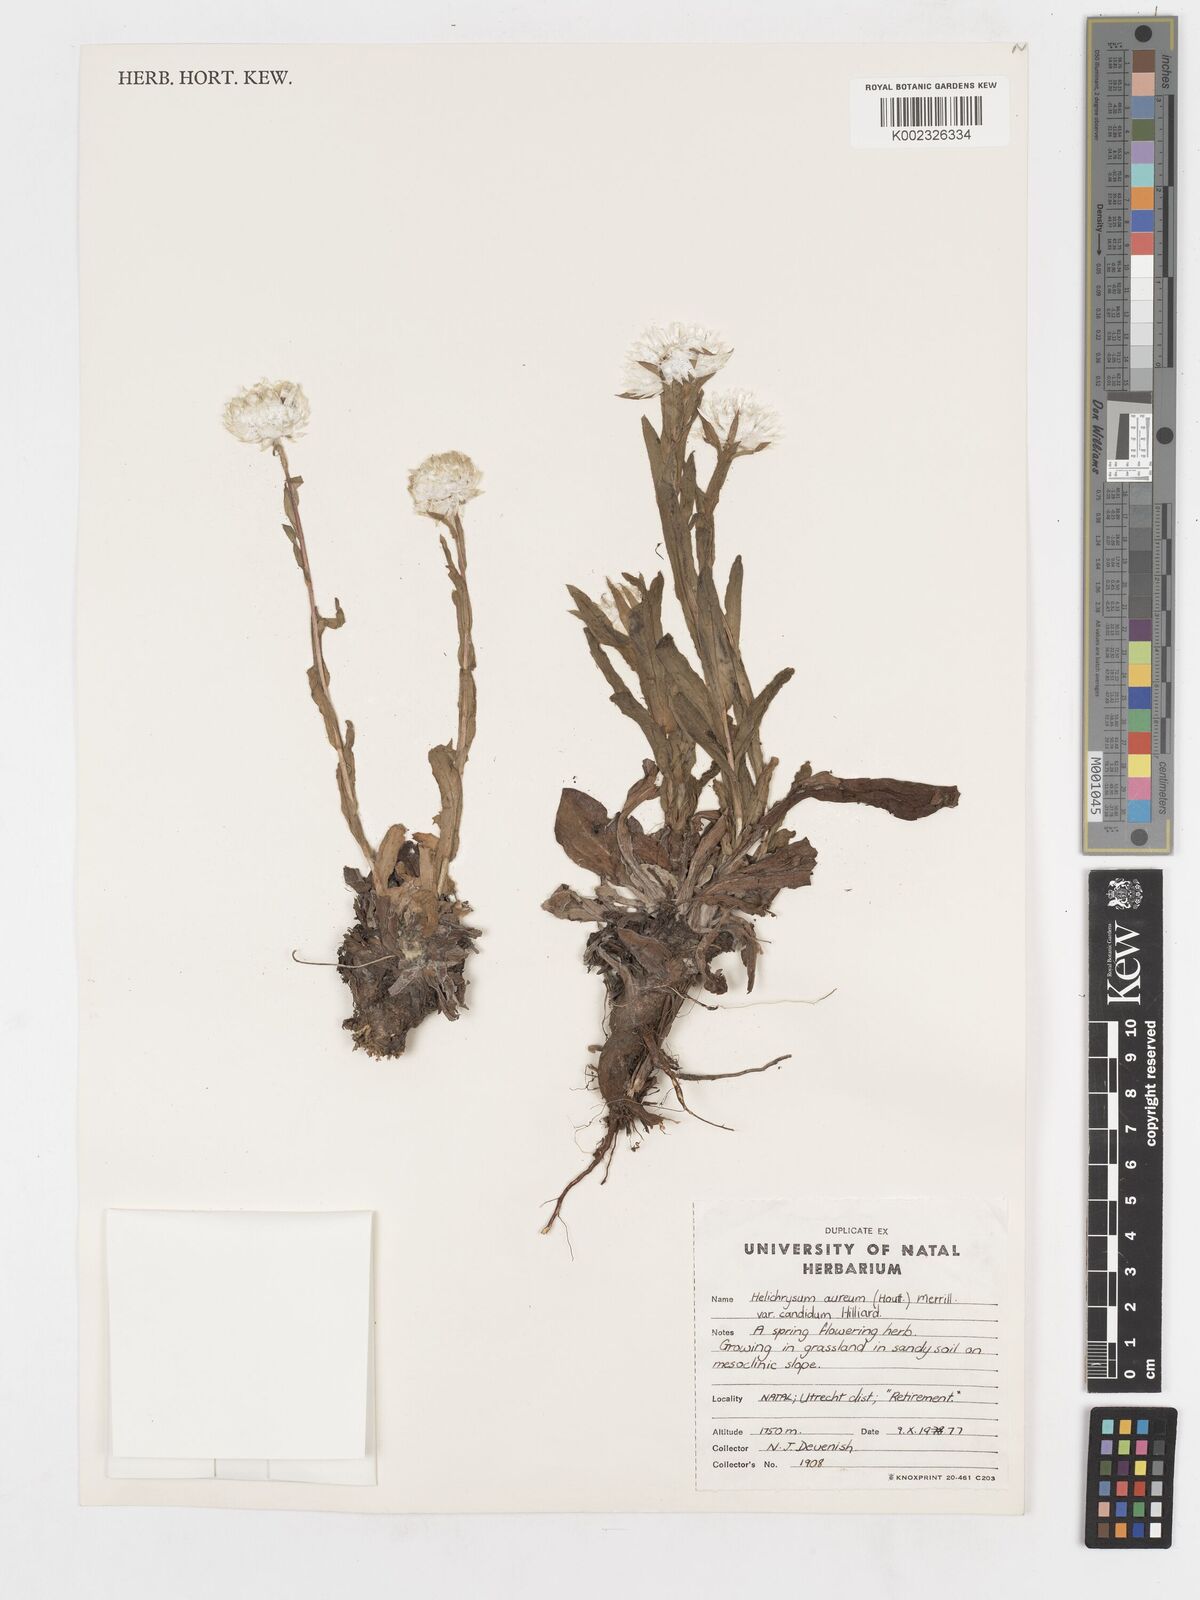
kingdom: Plantae
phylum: Tracheophyta
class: Magnoliopsida
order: Asterales
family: Asteraceae
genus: Helichrysum
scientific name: Helichrysum aureum
